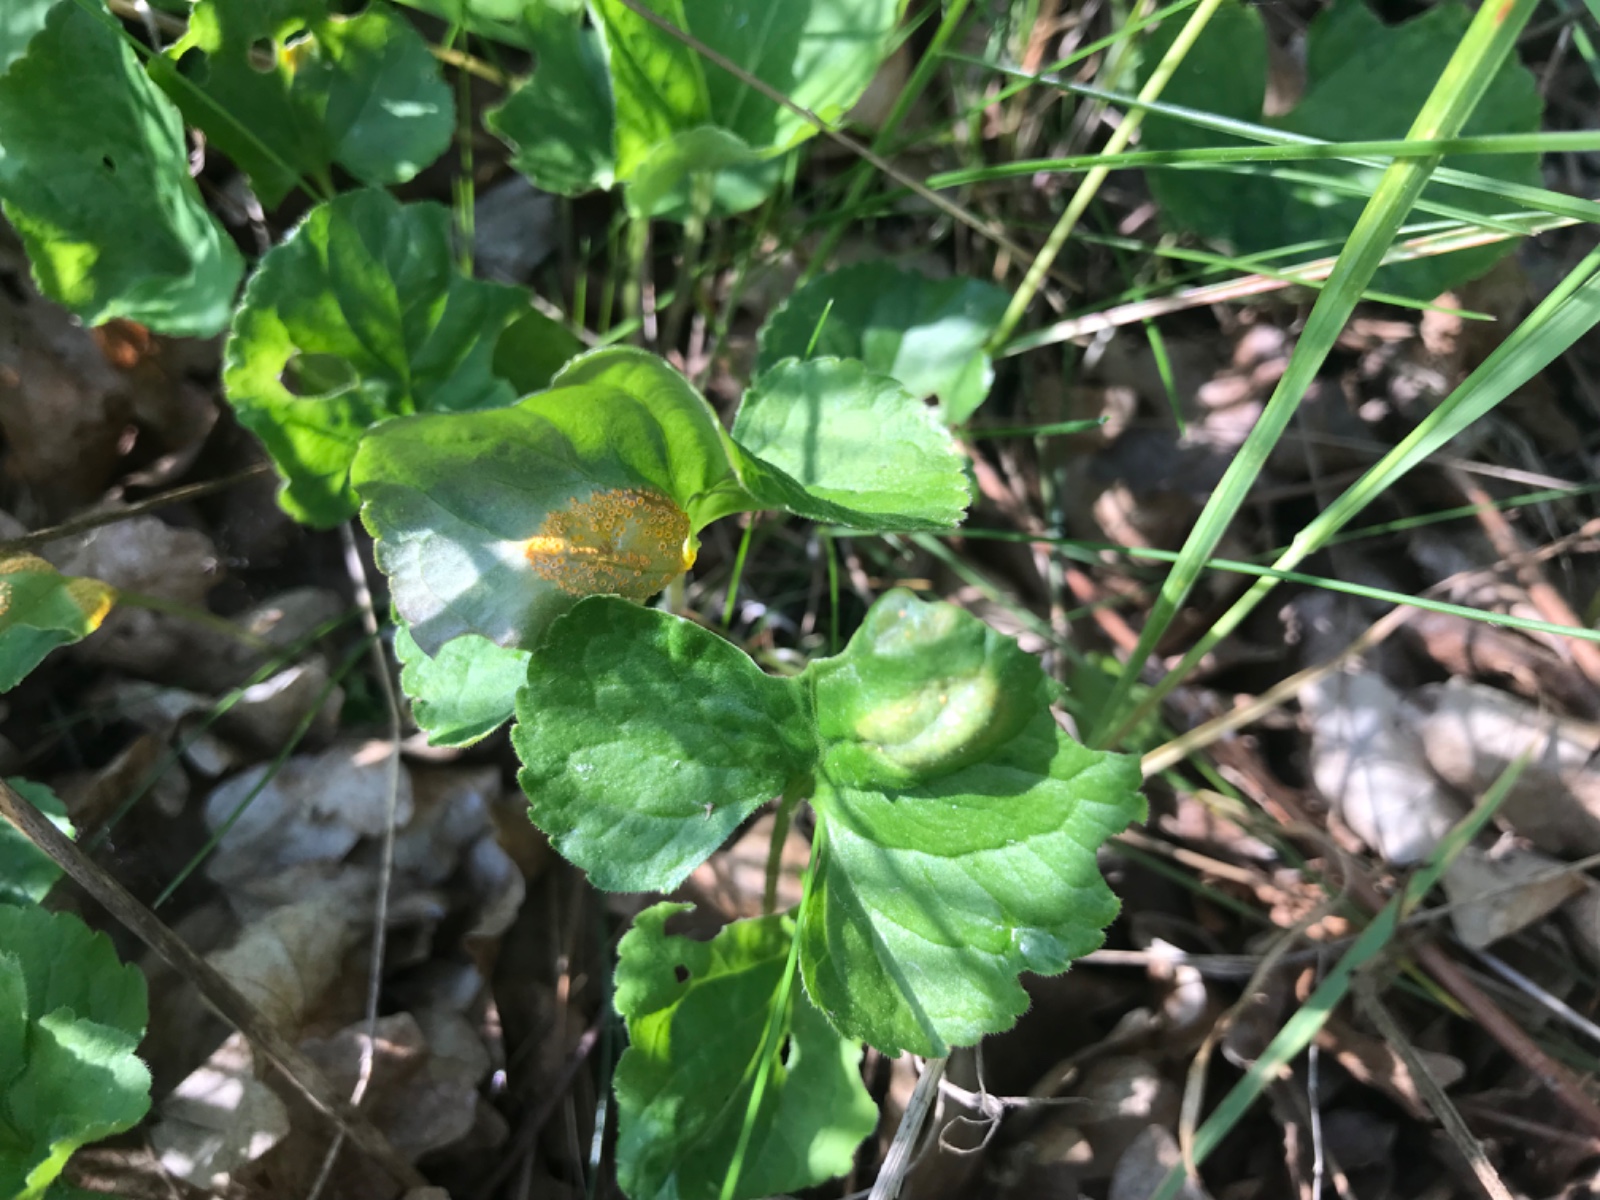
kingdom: Fungi
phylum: Basidiomycota
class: Pucciniomycetes
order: Pucciniales
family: Pucciniaceae
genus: Puccinia
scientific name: Puccinia violae
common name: viol-tvecellerust
